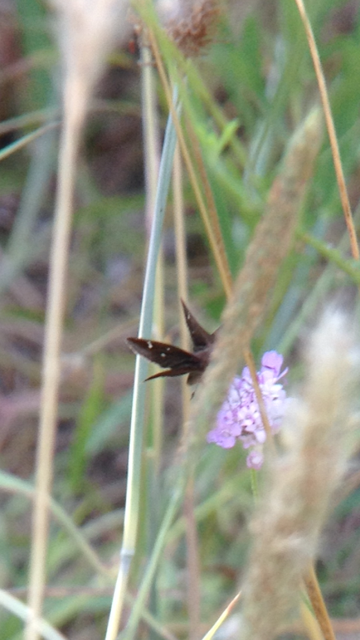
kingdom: Animalia
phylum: Arthropoda
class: Insecta
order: Lepidoptera
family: Hesperiidae
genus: Lerema
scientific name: Lerema accius
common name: Clouded Skipper
